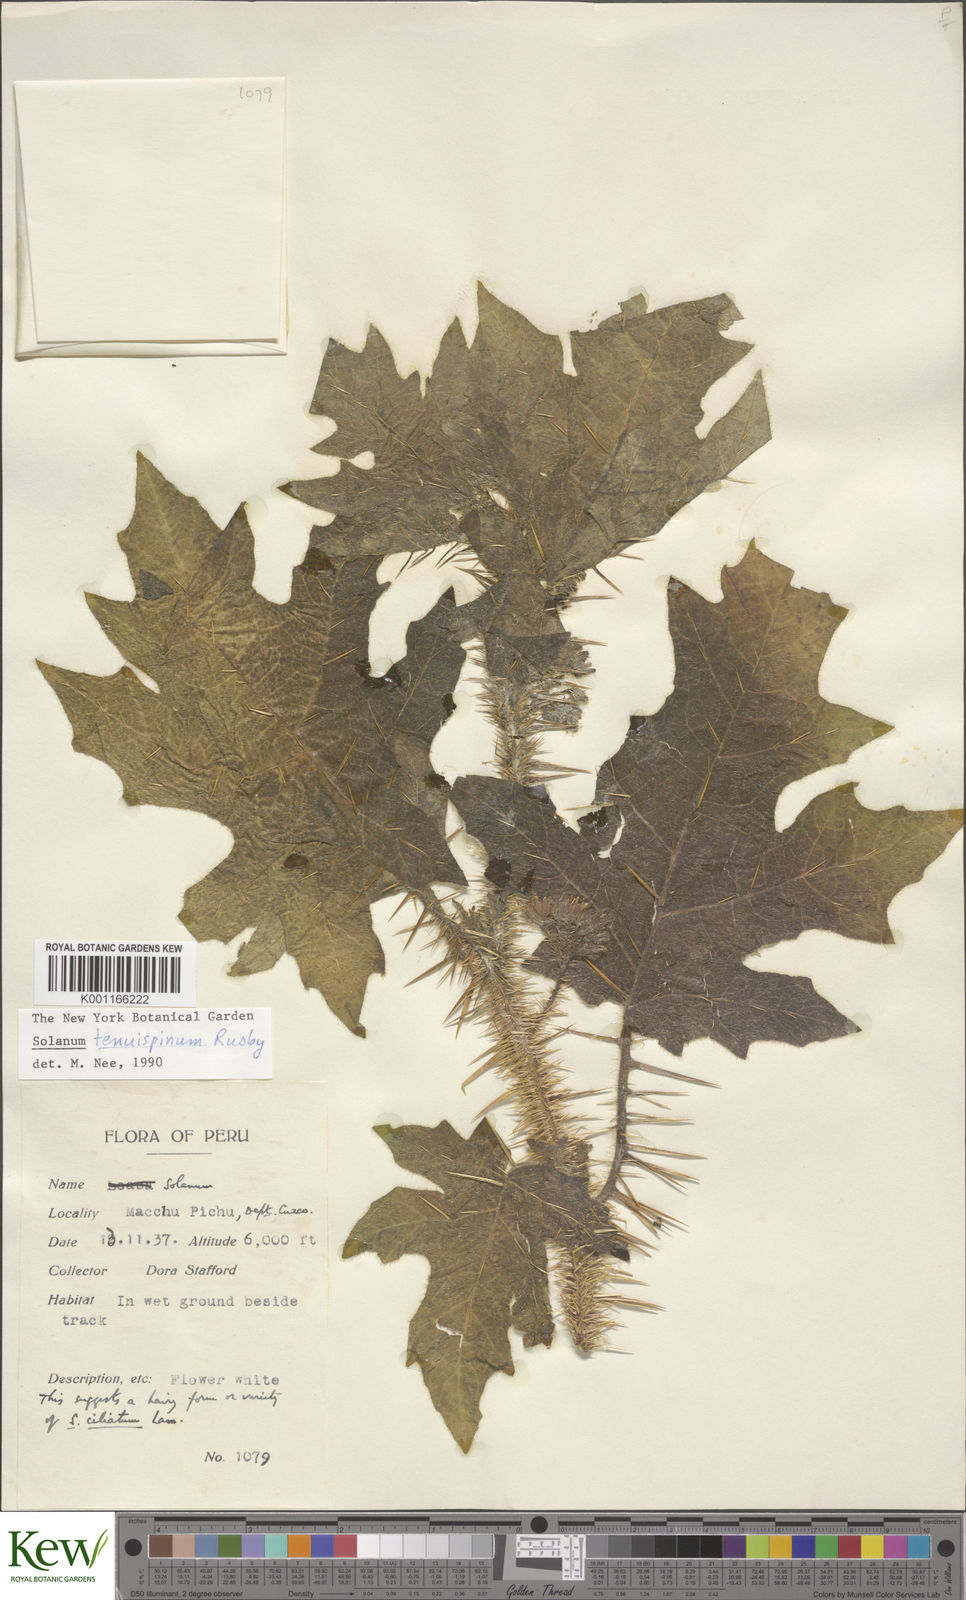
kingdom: Plantae
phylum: Tracheophyta
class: Magnoliopsida
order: Solanales
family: Solanaceae
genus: Solanum
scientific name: Solanum tenuispinum
